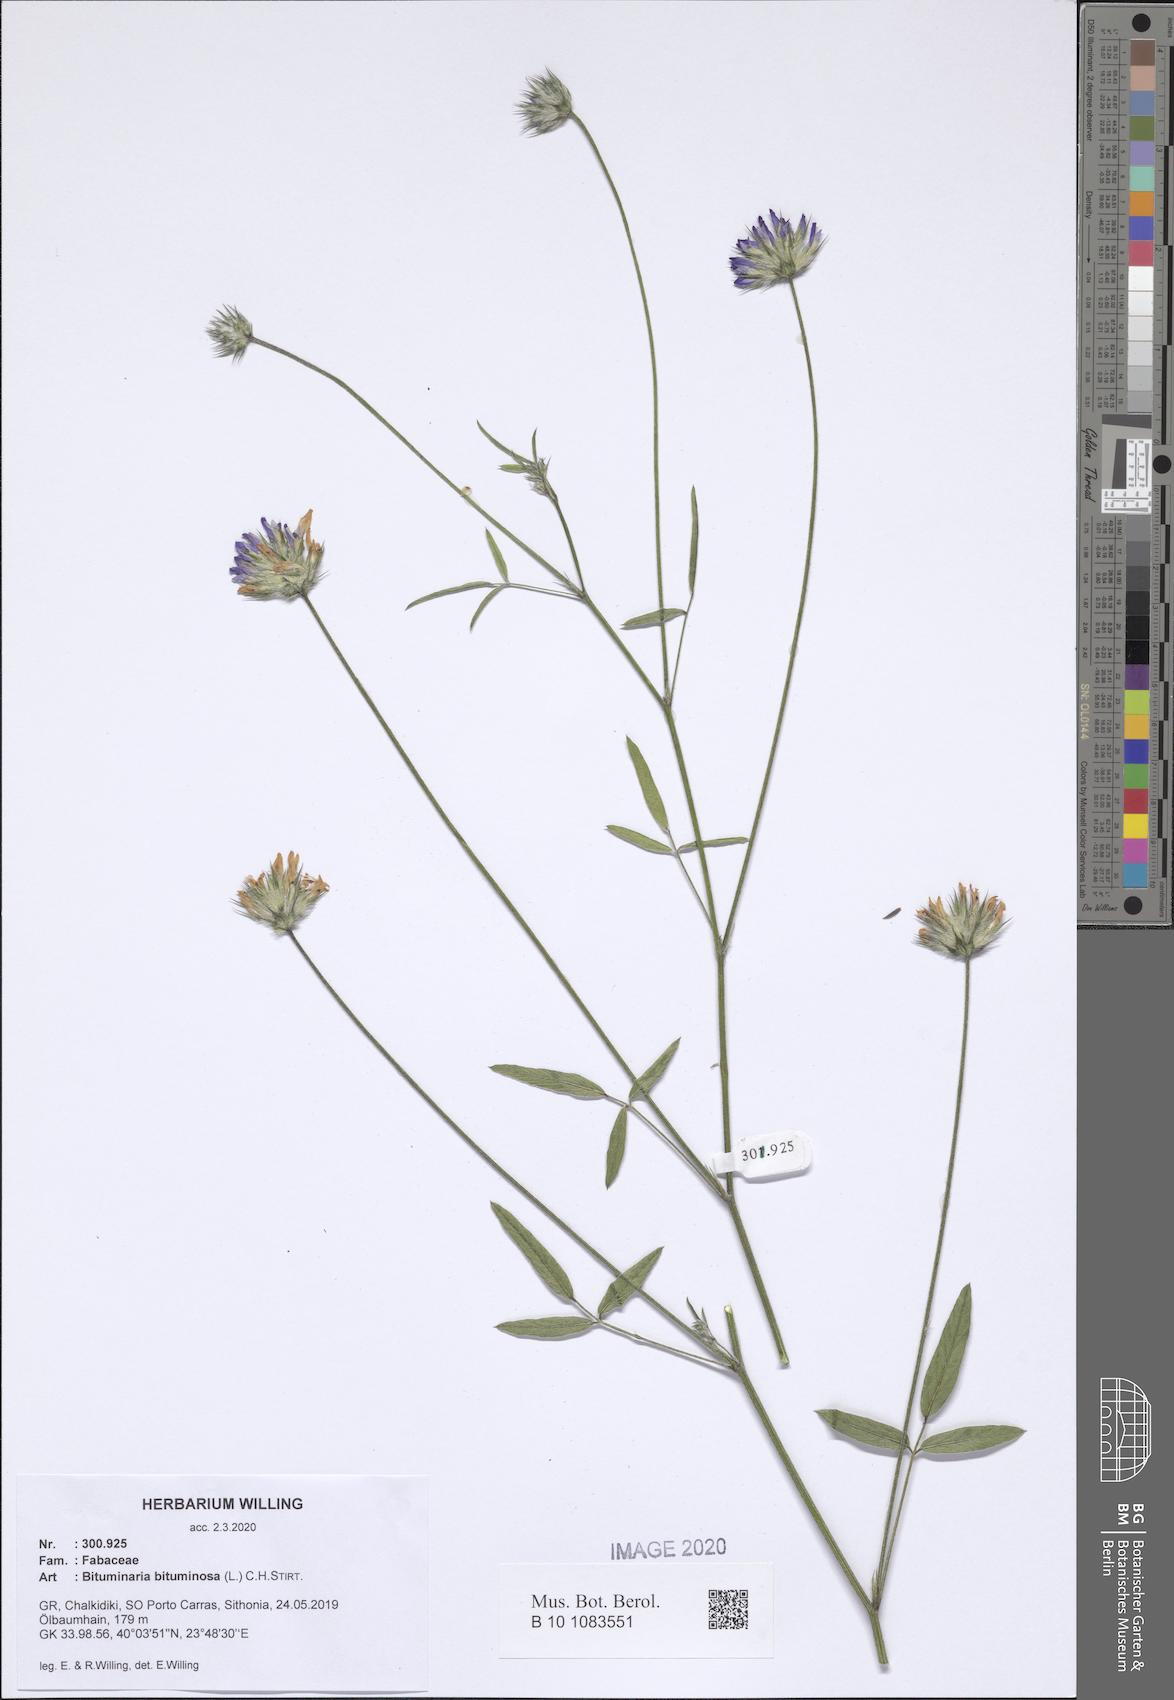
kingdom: Plantae
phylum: Tracheophyta
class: Magnoliopsida
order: Fabales
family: Fabaceae
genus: Bituminaria
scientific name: Bituminaria bituminosa
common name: Arabian pea
